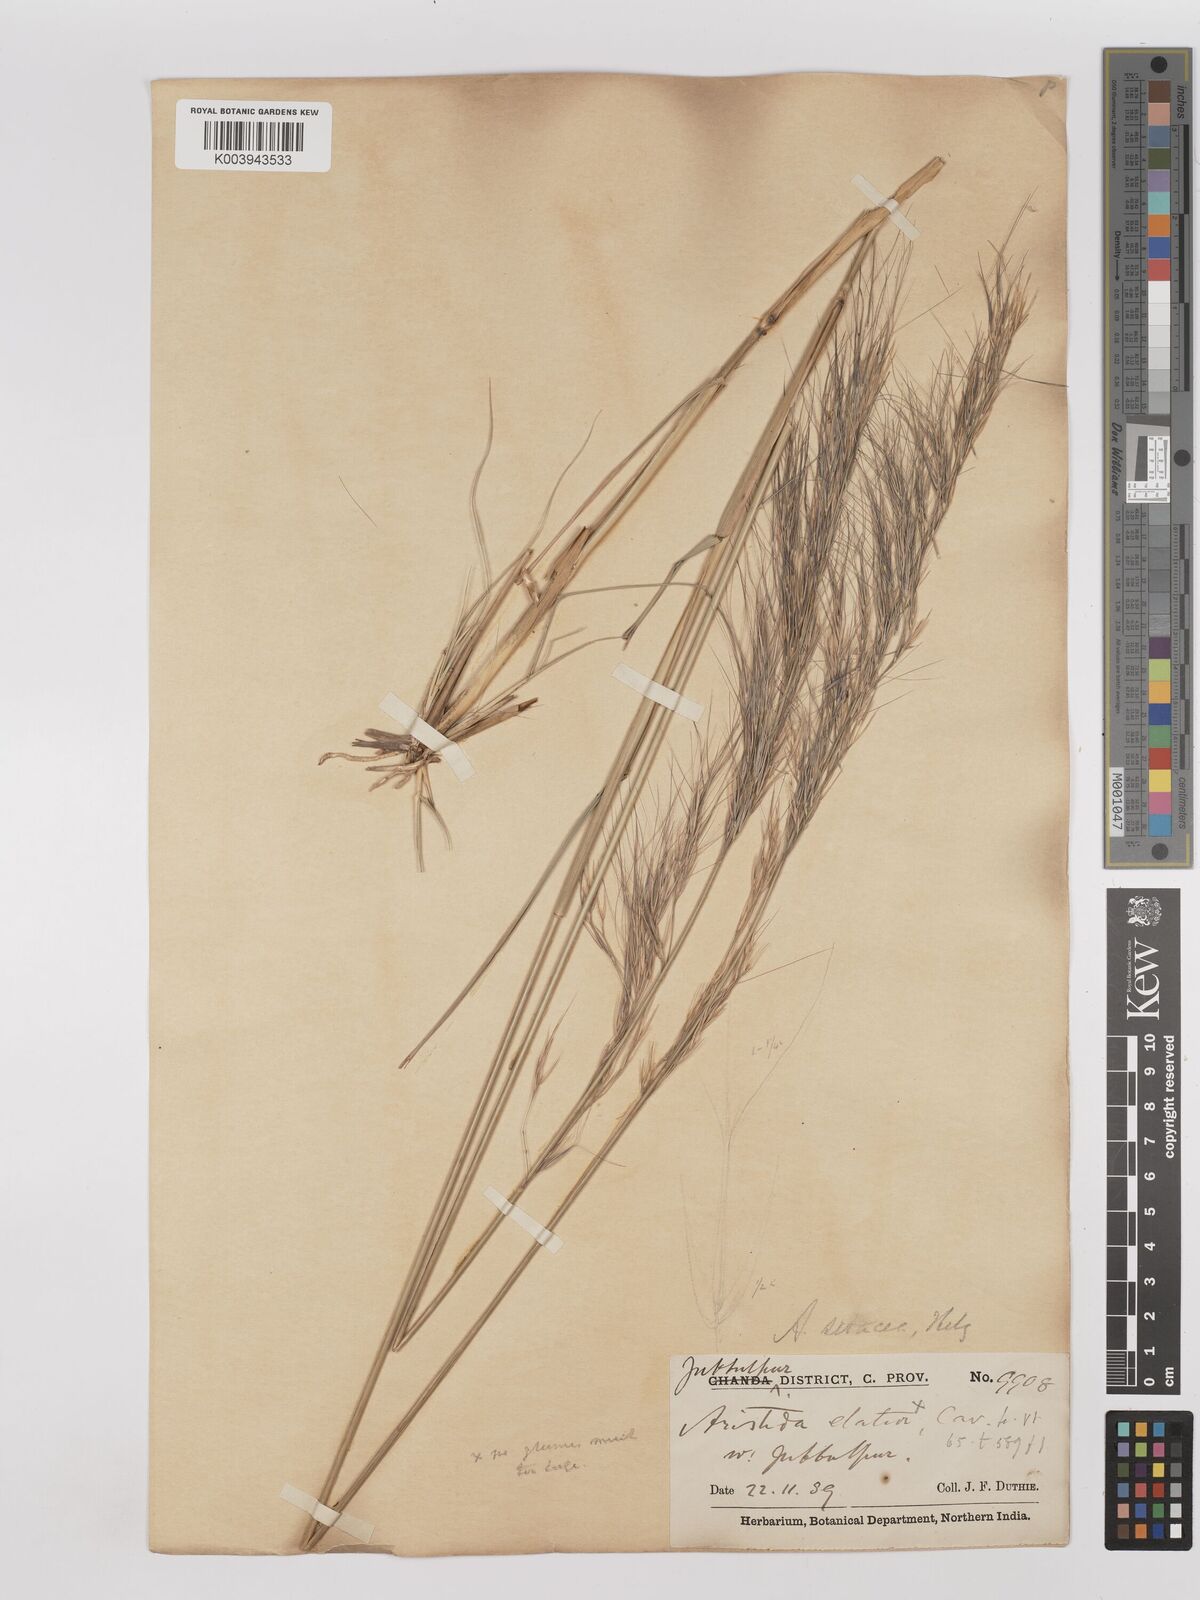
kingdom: Plantae
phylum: Tracheophyta
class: Liliopsida
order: Poales
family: Poaceae
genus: Aristida
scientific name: Aristida setacea
